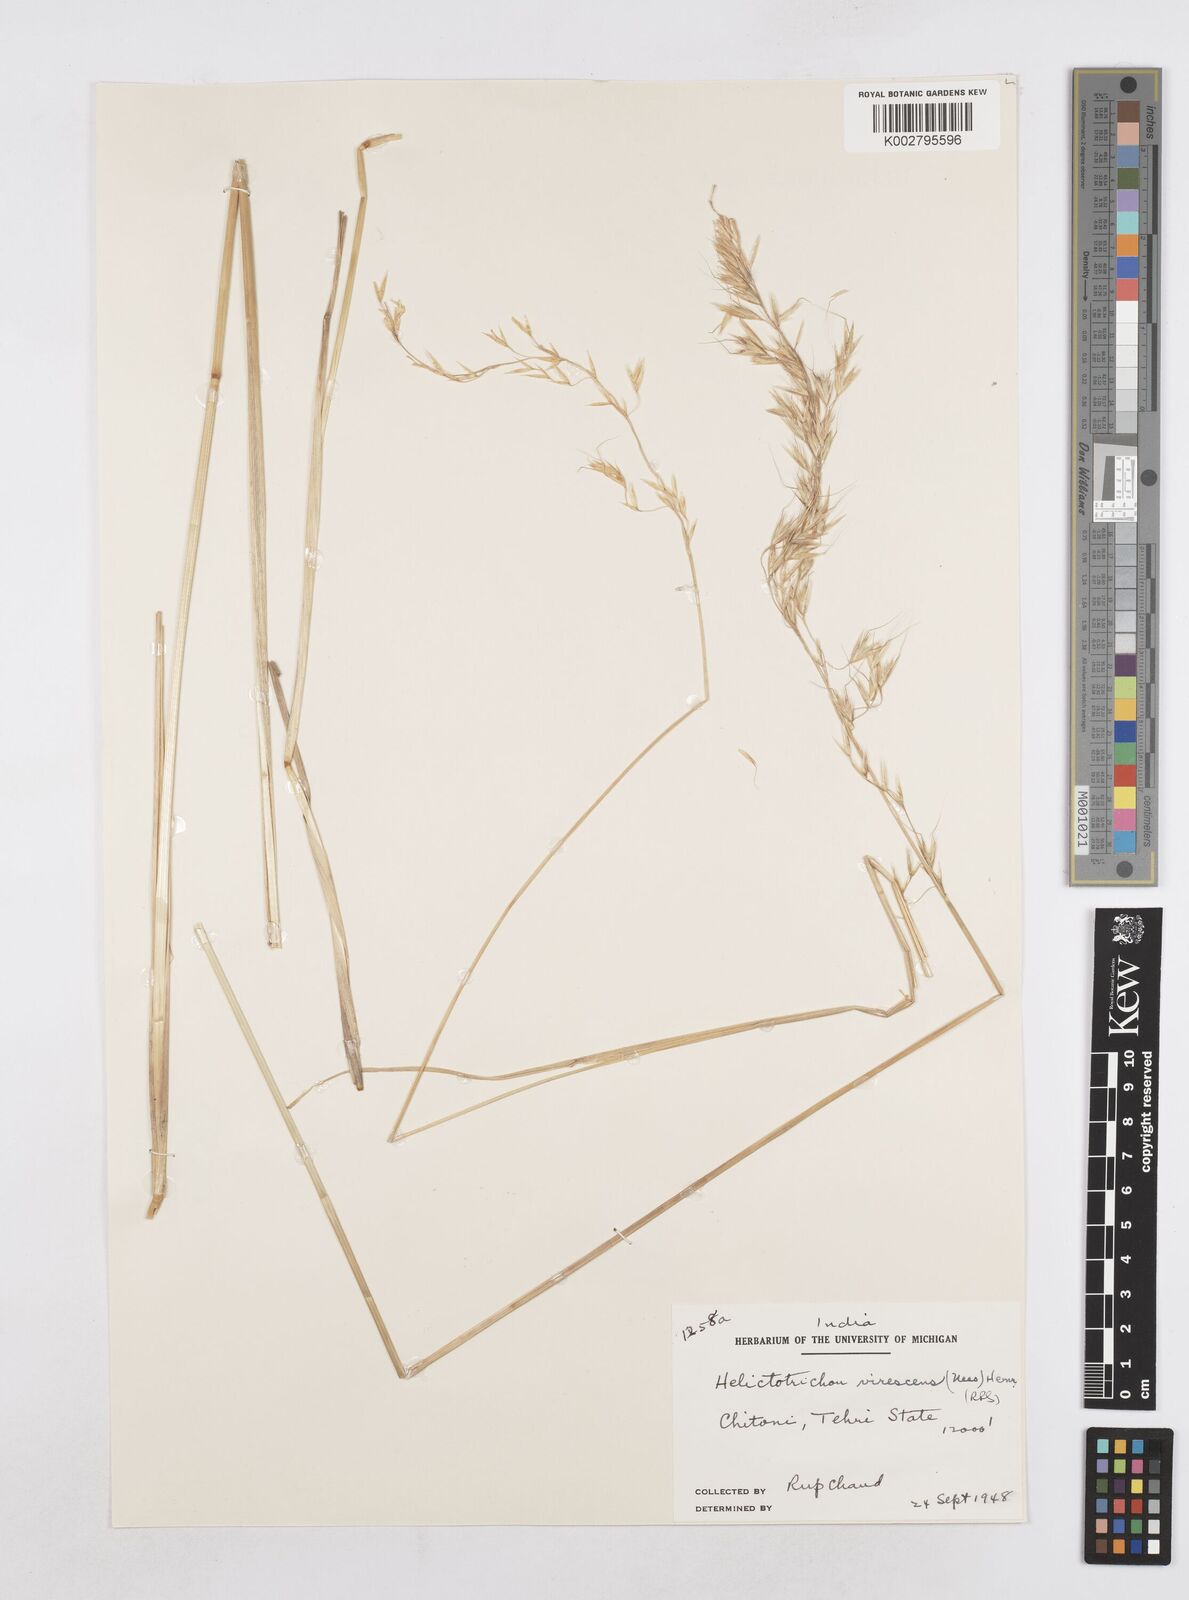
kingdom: Plantae
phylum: Tracheophyta
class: Liliopsida
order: Poales
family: Poaceae
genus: Helictotrichon
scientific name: Helictotrichon
